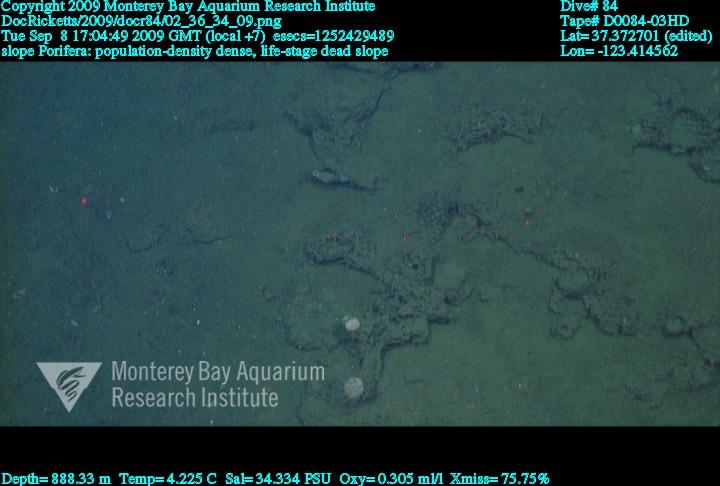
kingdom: Animalia
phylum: Porifera
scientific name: Porifera
